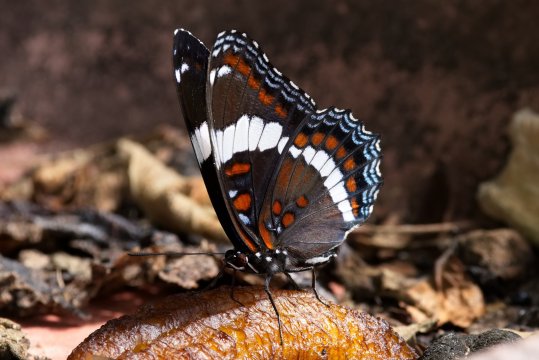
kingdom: Animalia
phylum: Arthropoda
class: Insecta
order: Lepidoptera
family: Nymphalidae
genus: Limenitis
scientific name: Limenitis arthemis
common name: Red-spotted Admiral
